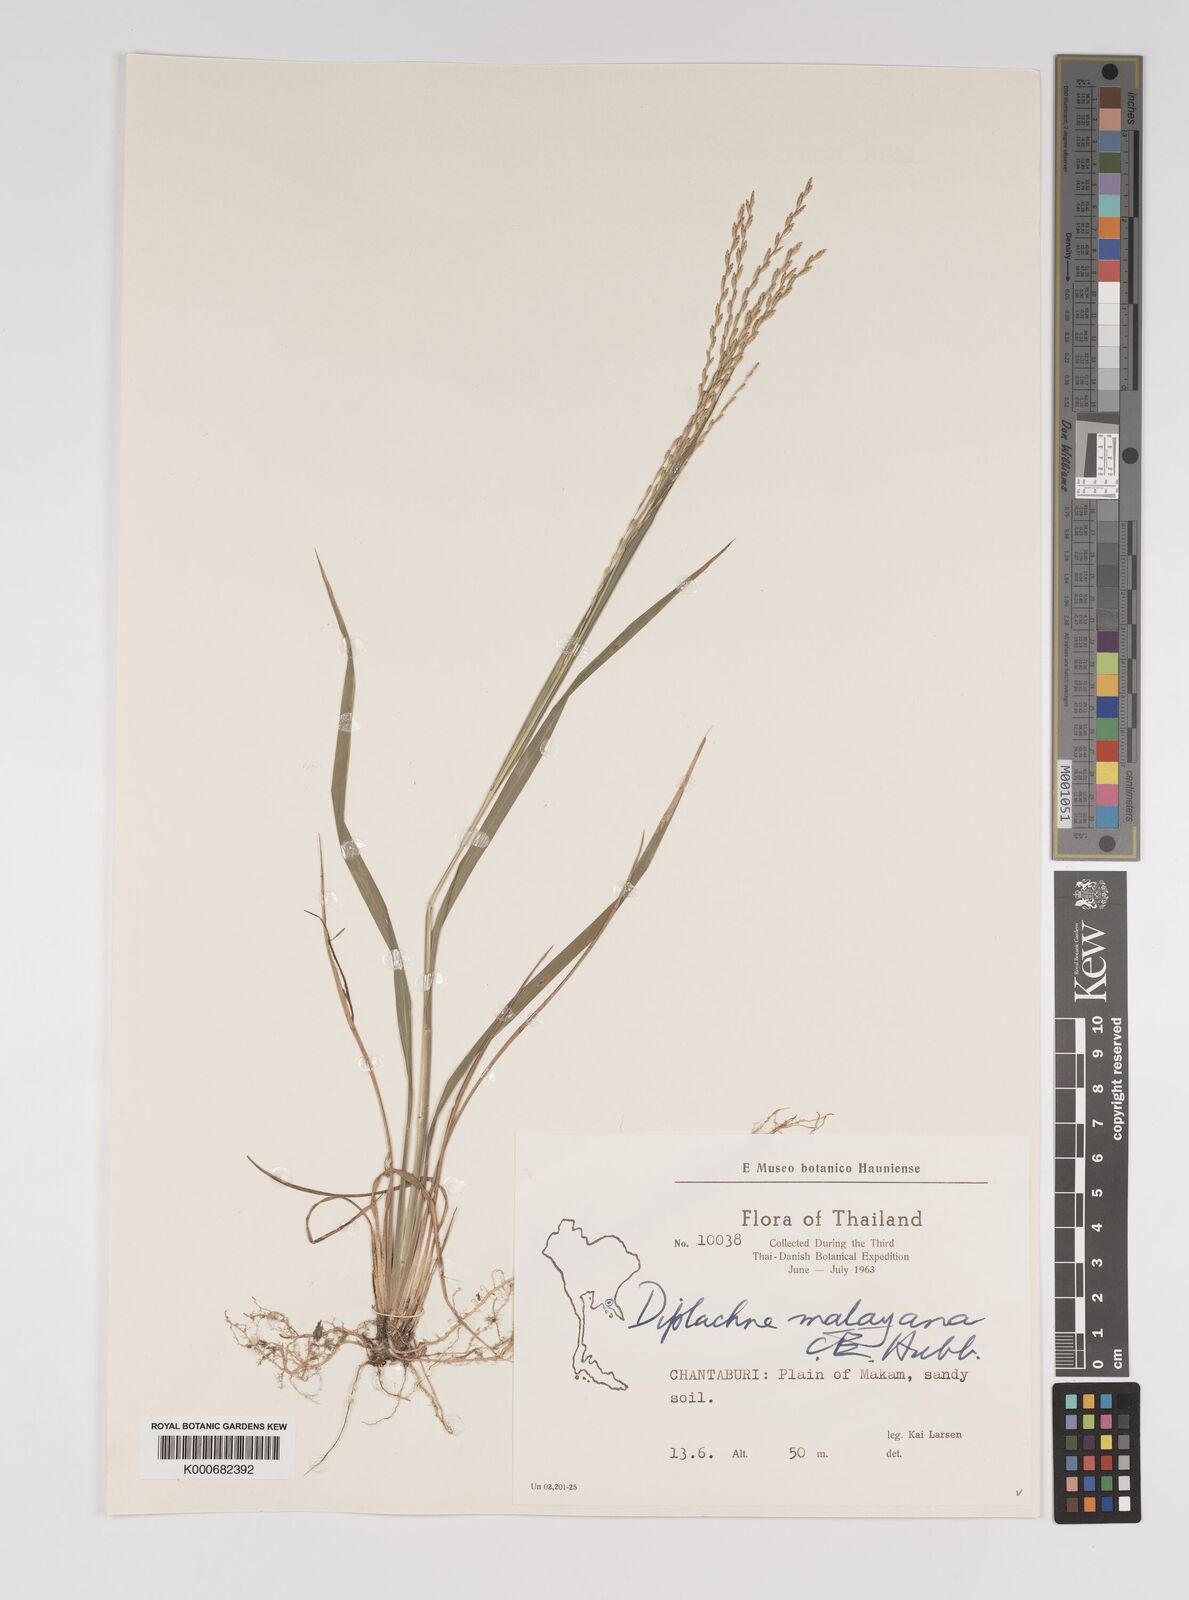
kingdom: Plantae
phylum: Tracheophyta
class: Liliopsida
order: Poales
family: Poaceae
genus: Leptochloa
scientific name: Leptochloa malayana
